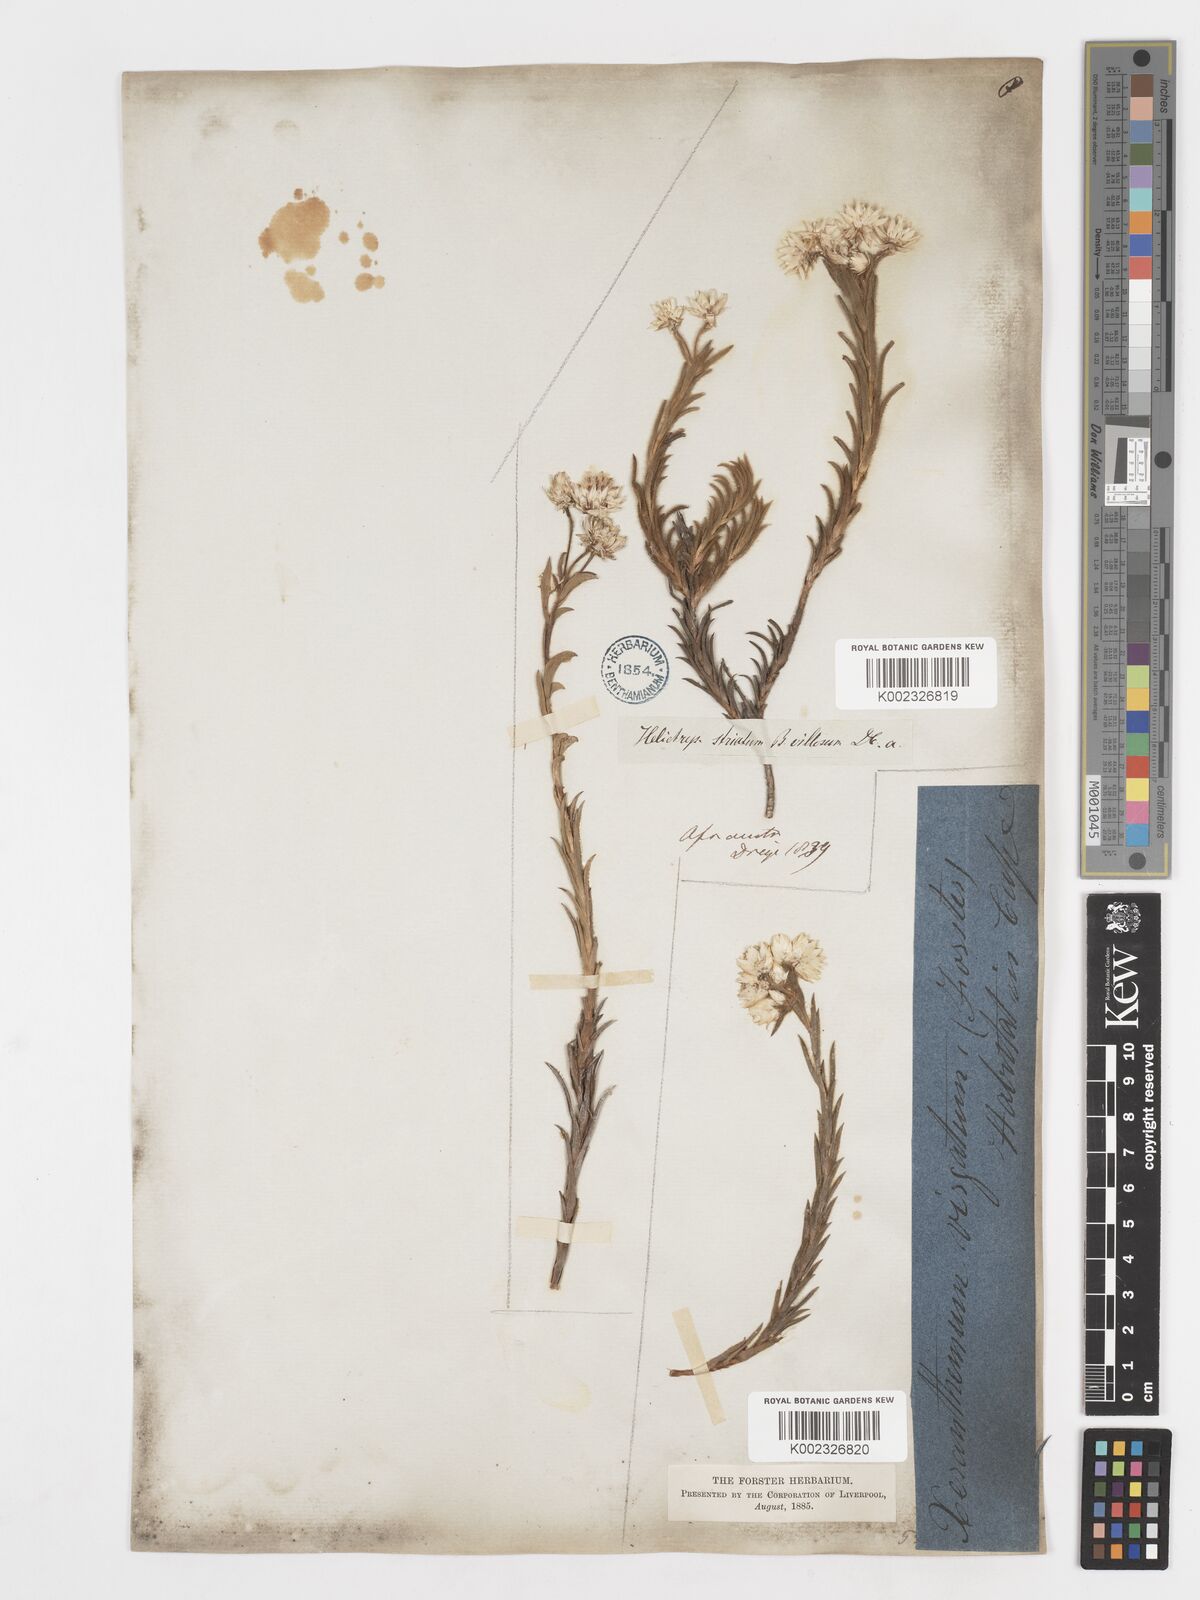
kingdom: Plantae
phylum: Tracheophyta
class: Magnoliopsida
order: Asterales
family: Asteraceae
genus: Achyranthemum
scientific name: Achyranthemum striatum
